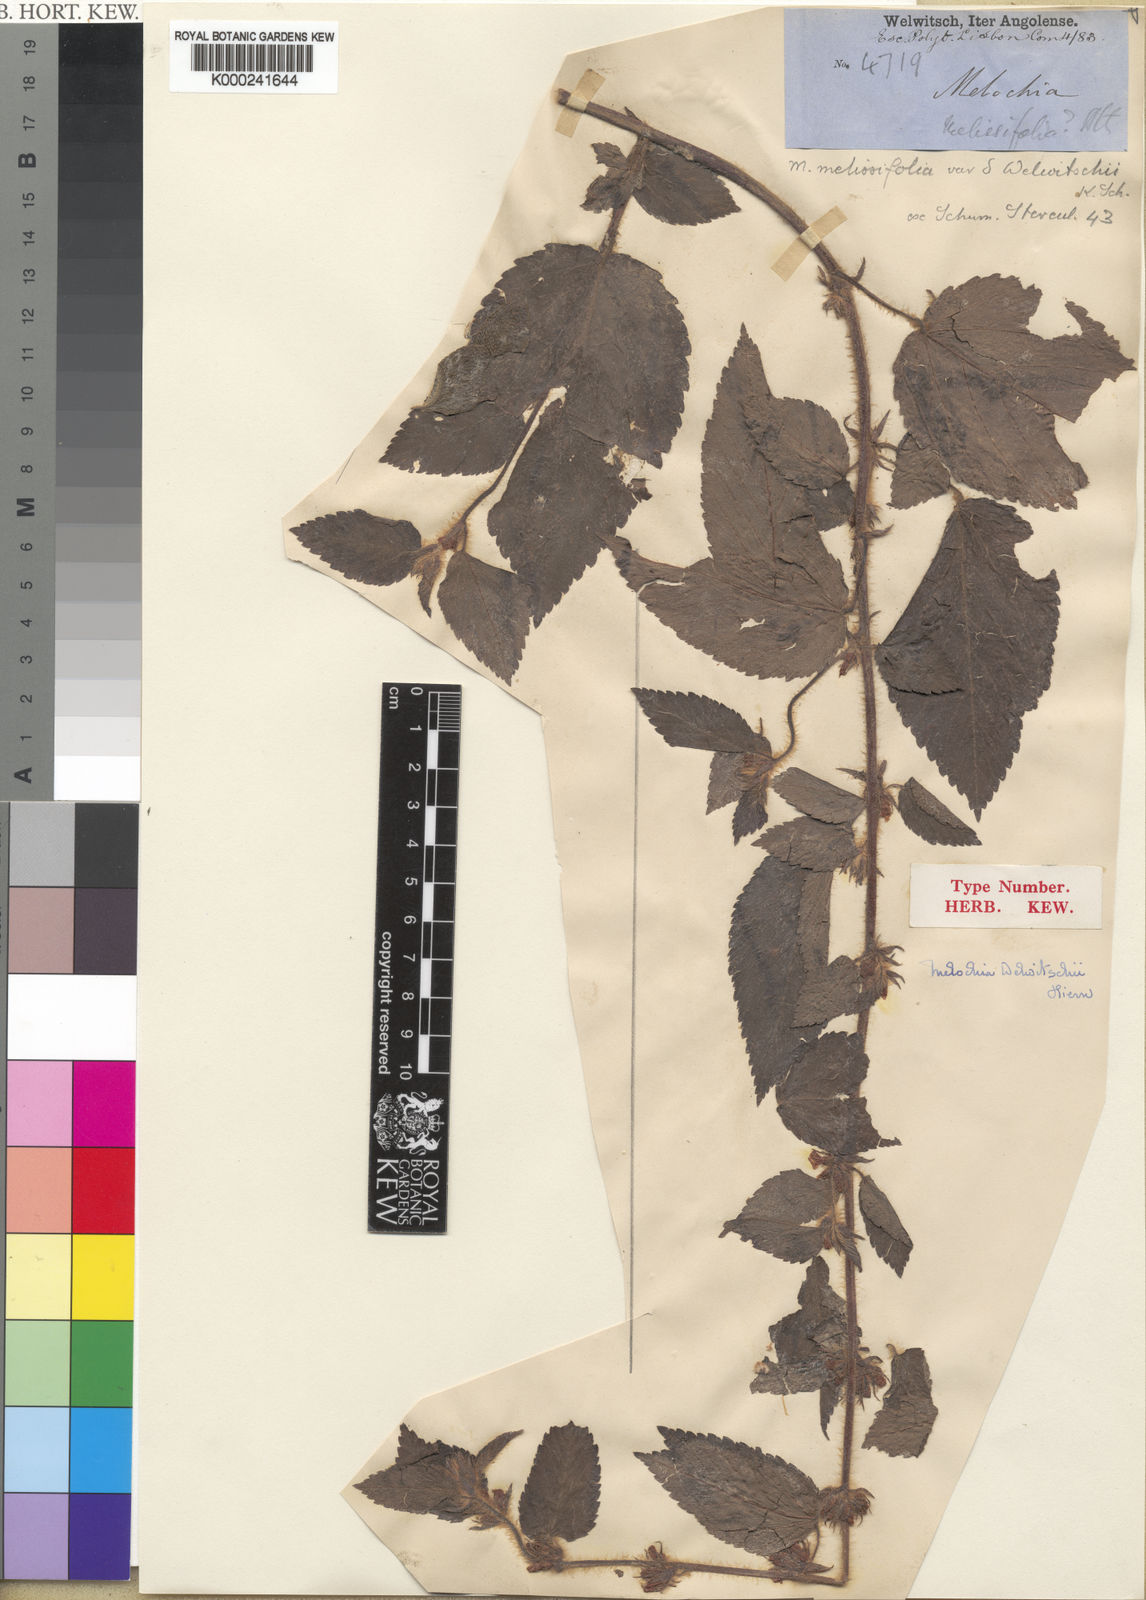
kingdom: Plantae
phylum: Tracheophyta
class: Magnoliopsida
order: Malvales
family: Malvaceae
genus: Melochia
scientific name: Melochia melissifolia
